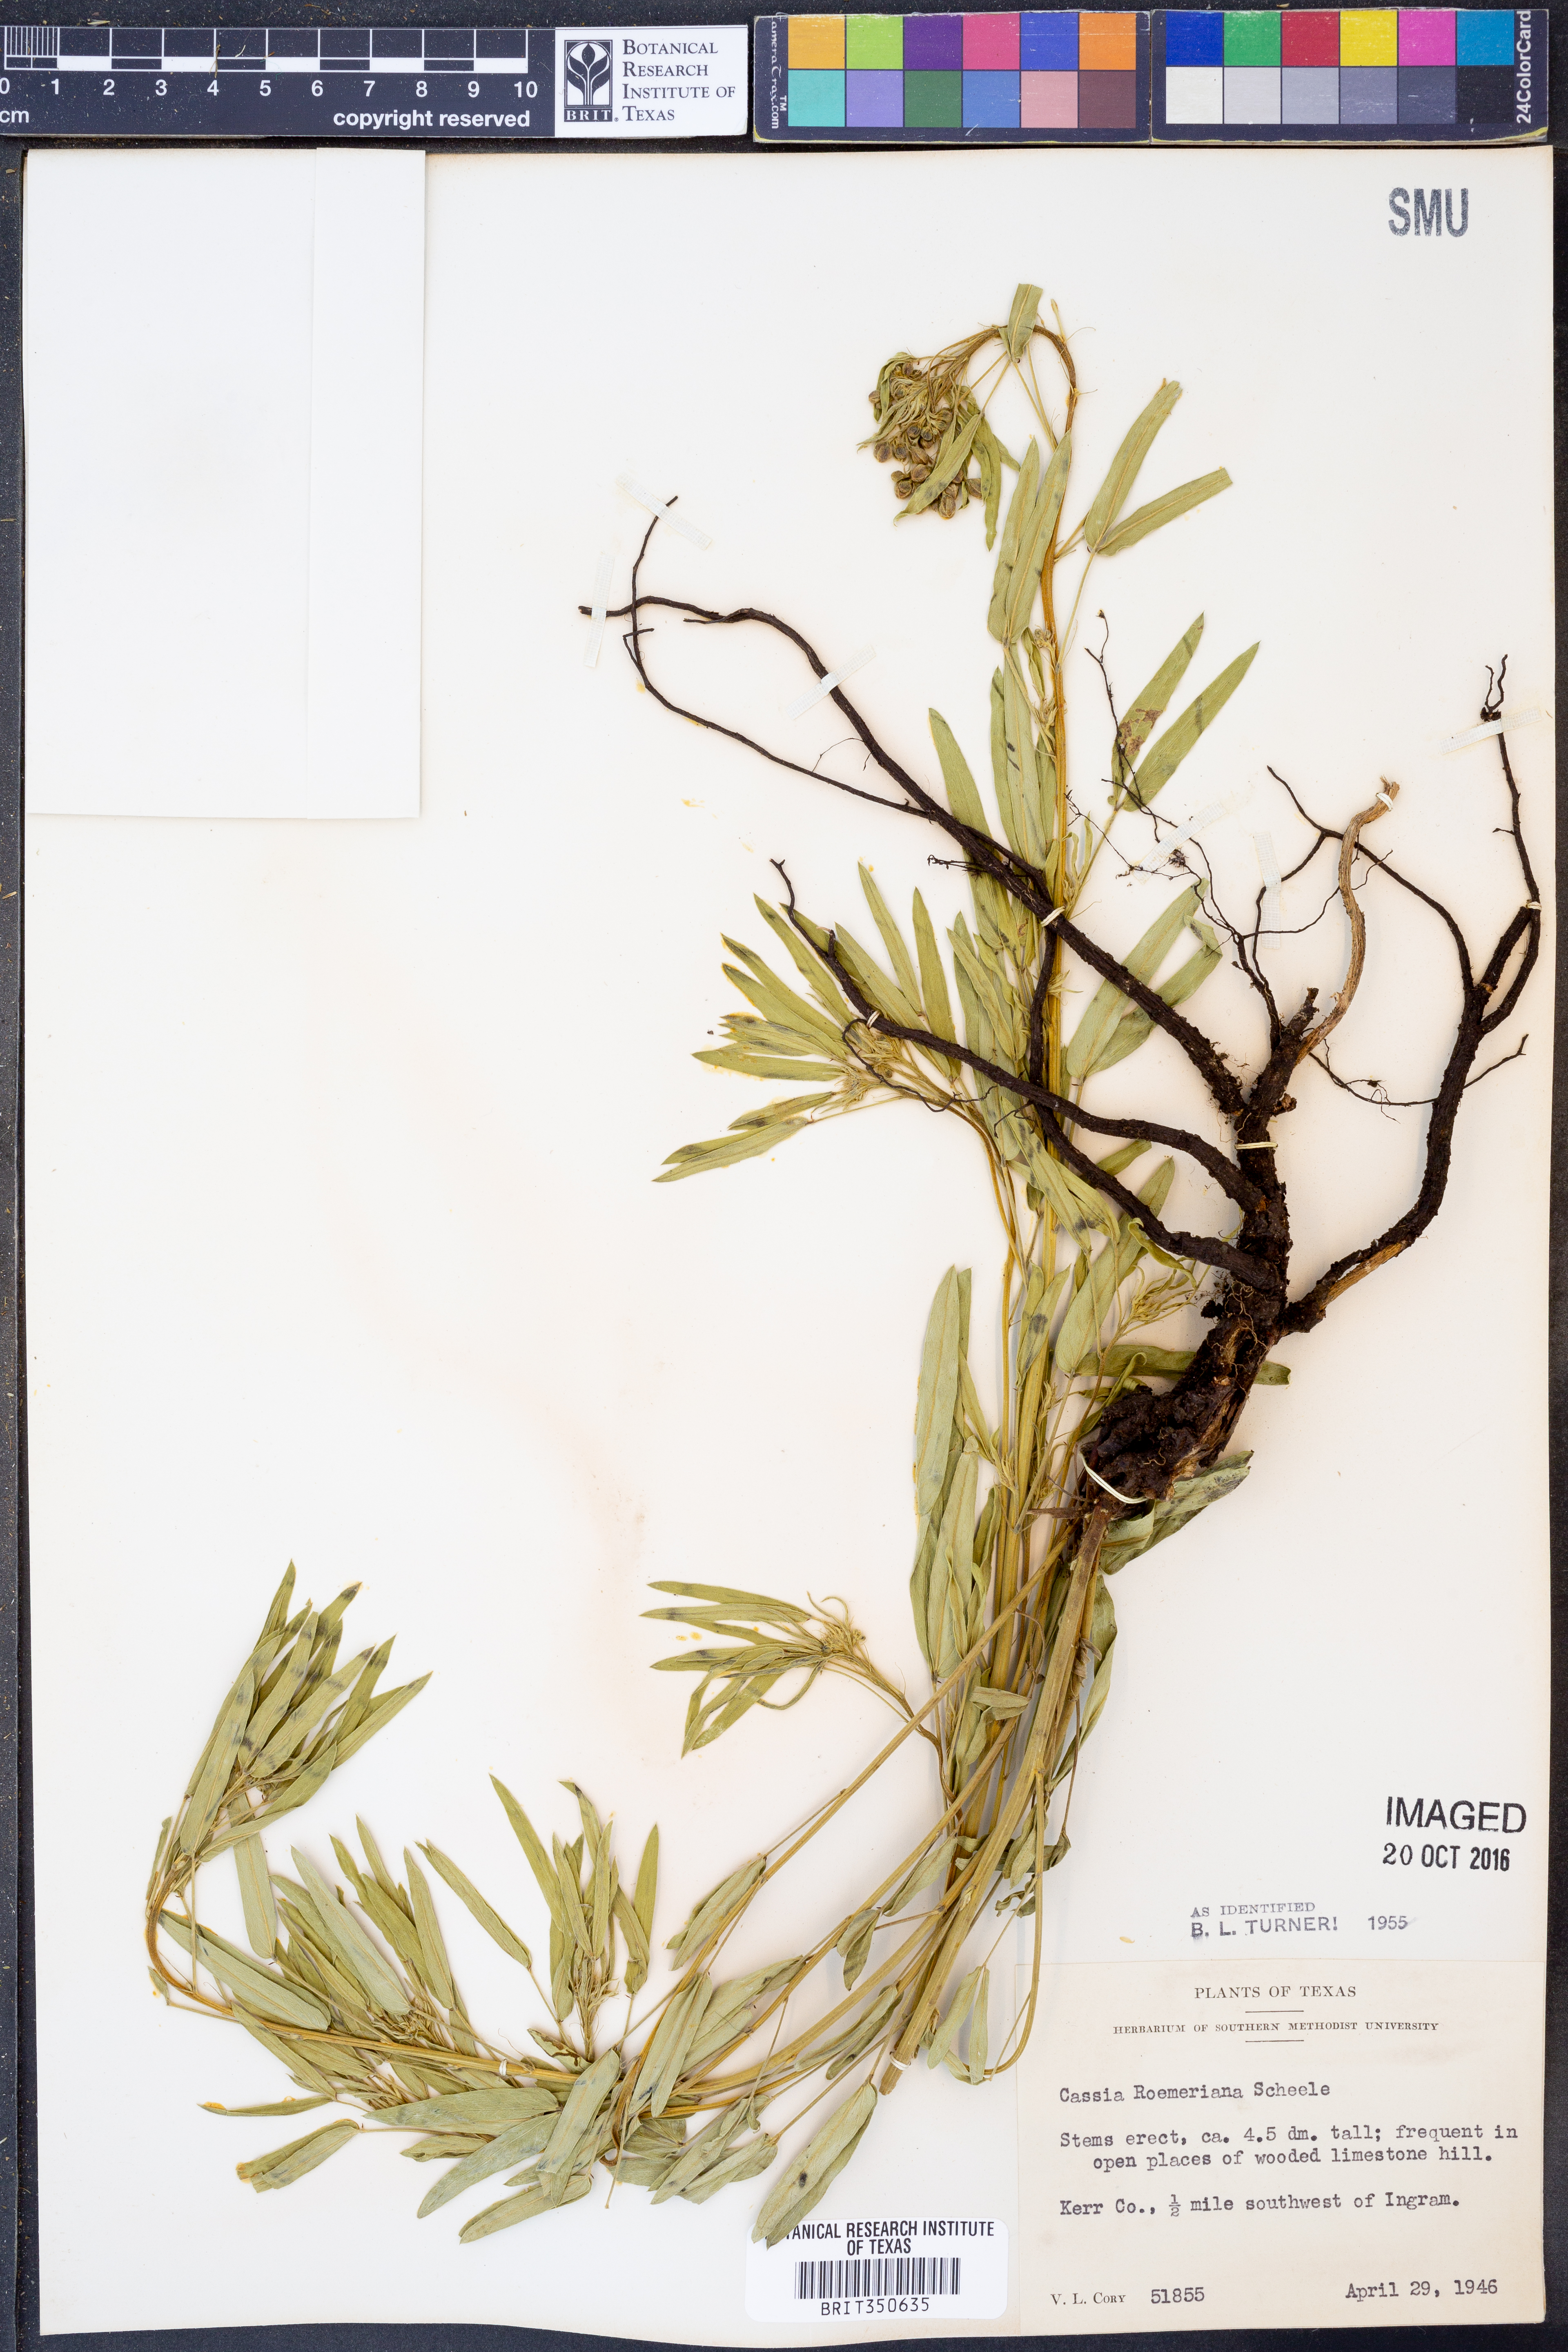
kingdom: Plantae
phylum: Tracheophyta
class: Magnoliopsida
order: Fabales
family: Fabaceae
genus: Senna
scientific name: Senna roemeriana
